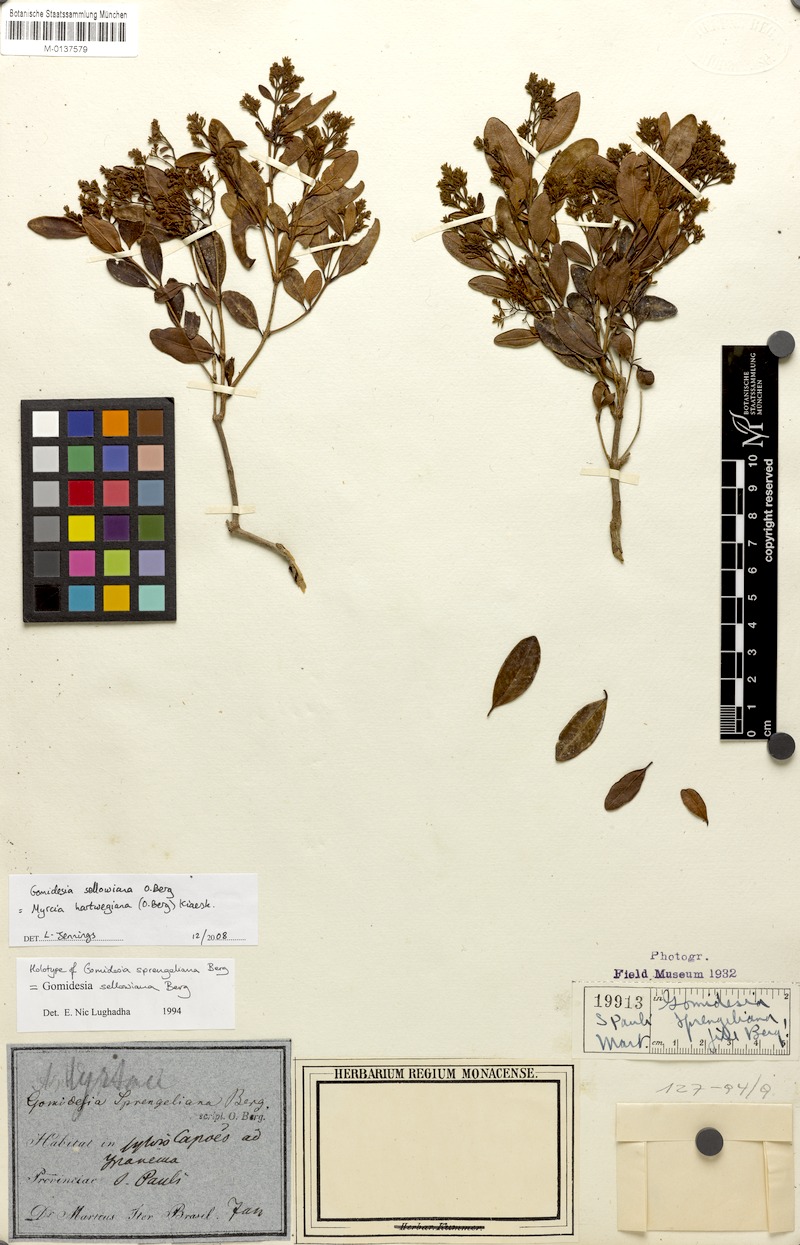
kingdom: Plantae
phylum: Tracheophyta
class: Magnoliopsida
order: Myrtales
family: Myrtaceae
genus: Myrcia
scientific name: Myrcia hartwegiana
